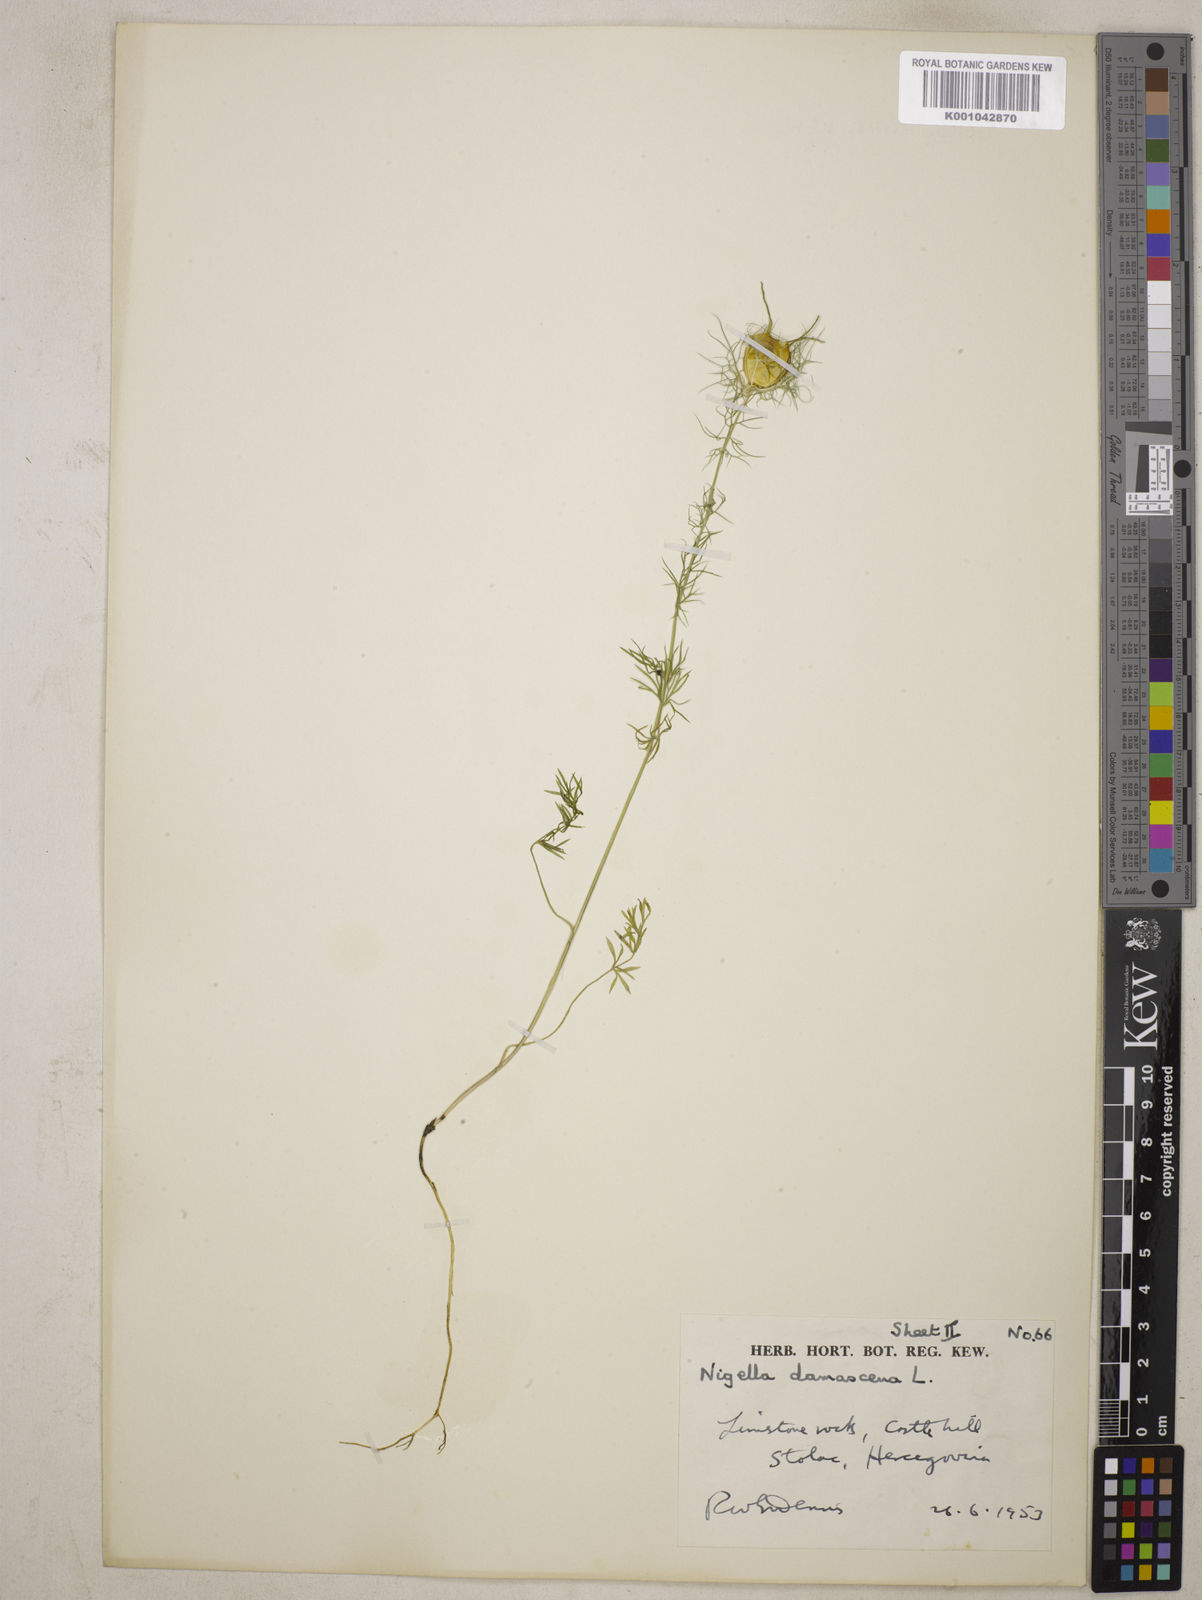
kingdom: Plantae
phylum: Tracheophyta
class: Magnoliopsida
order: Ranunculales
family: Ranunculaceae
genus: Nigella
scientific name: Nigella damascena
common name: Love-in-a-mist
